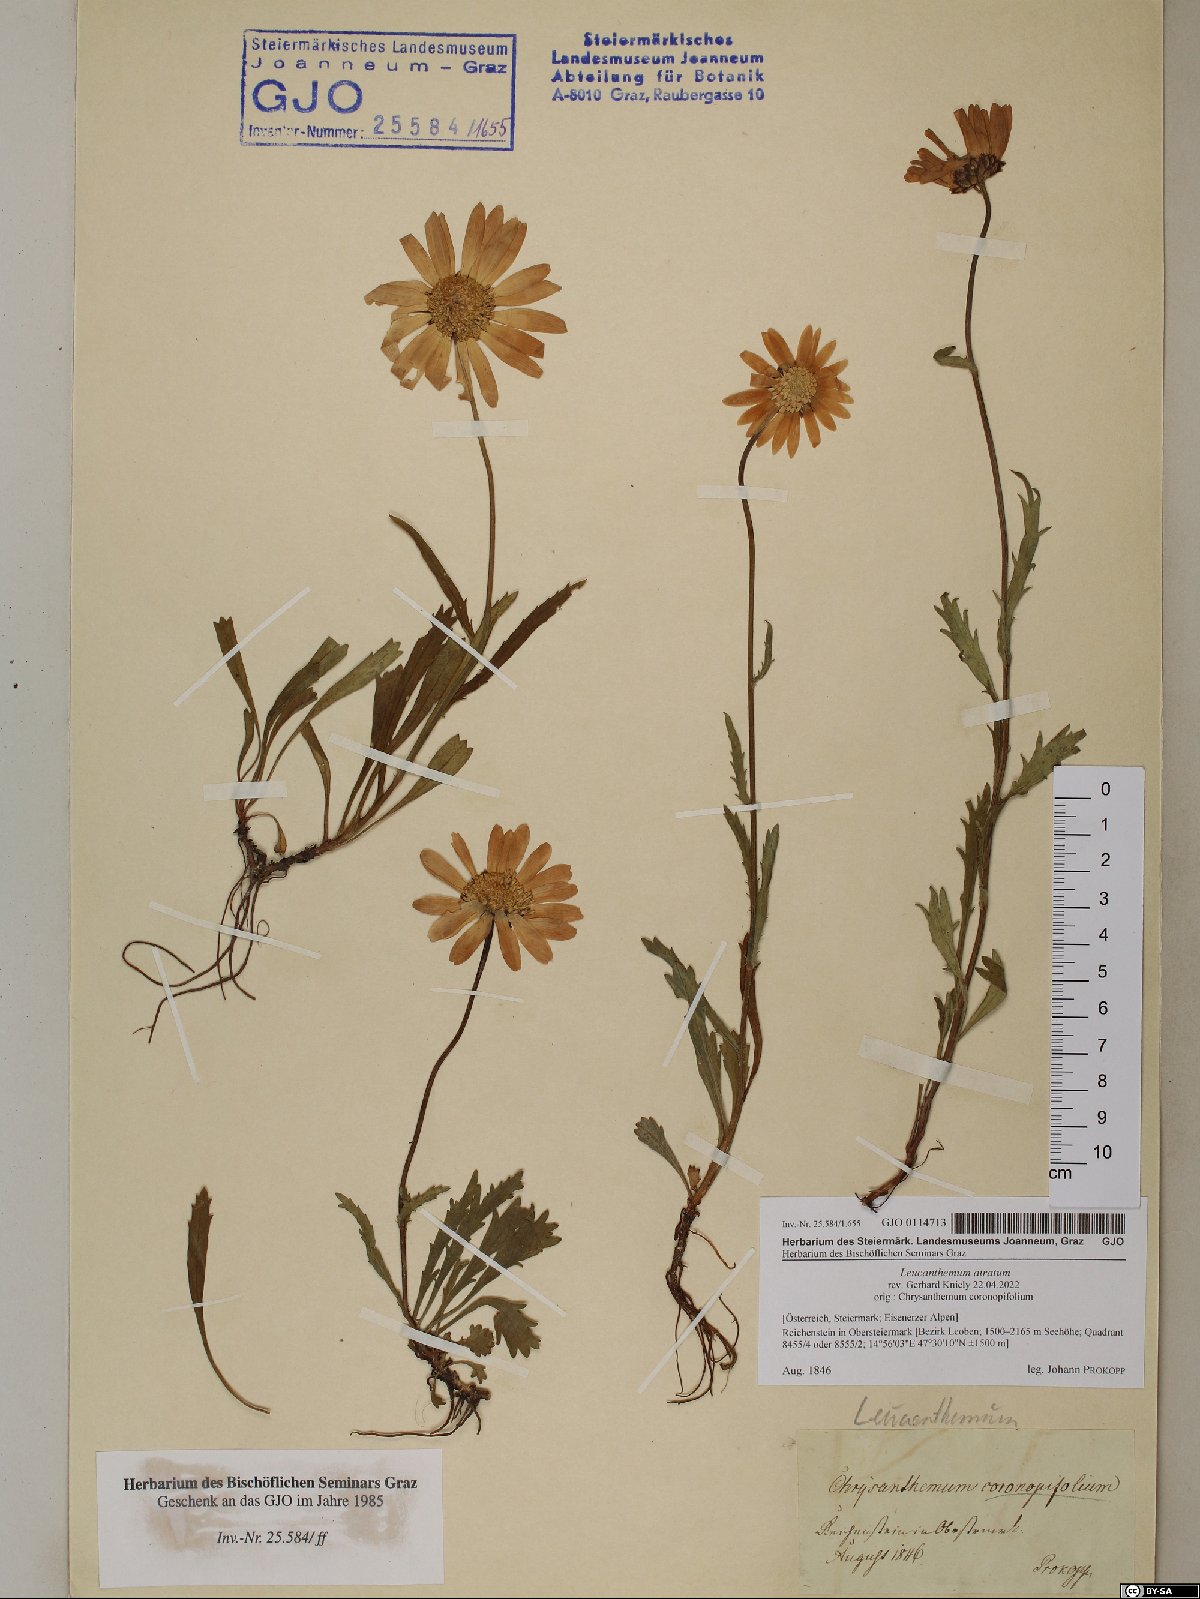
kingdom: Plantae
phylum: Tracheophyta
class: Magnoliopsida
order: Asterales
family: Asteraceae
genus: Leucanthemum
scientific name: Leucanthemum atratum
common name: Saw-leaved moon-daisy
